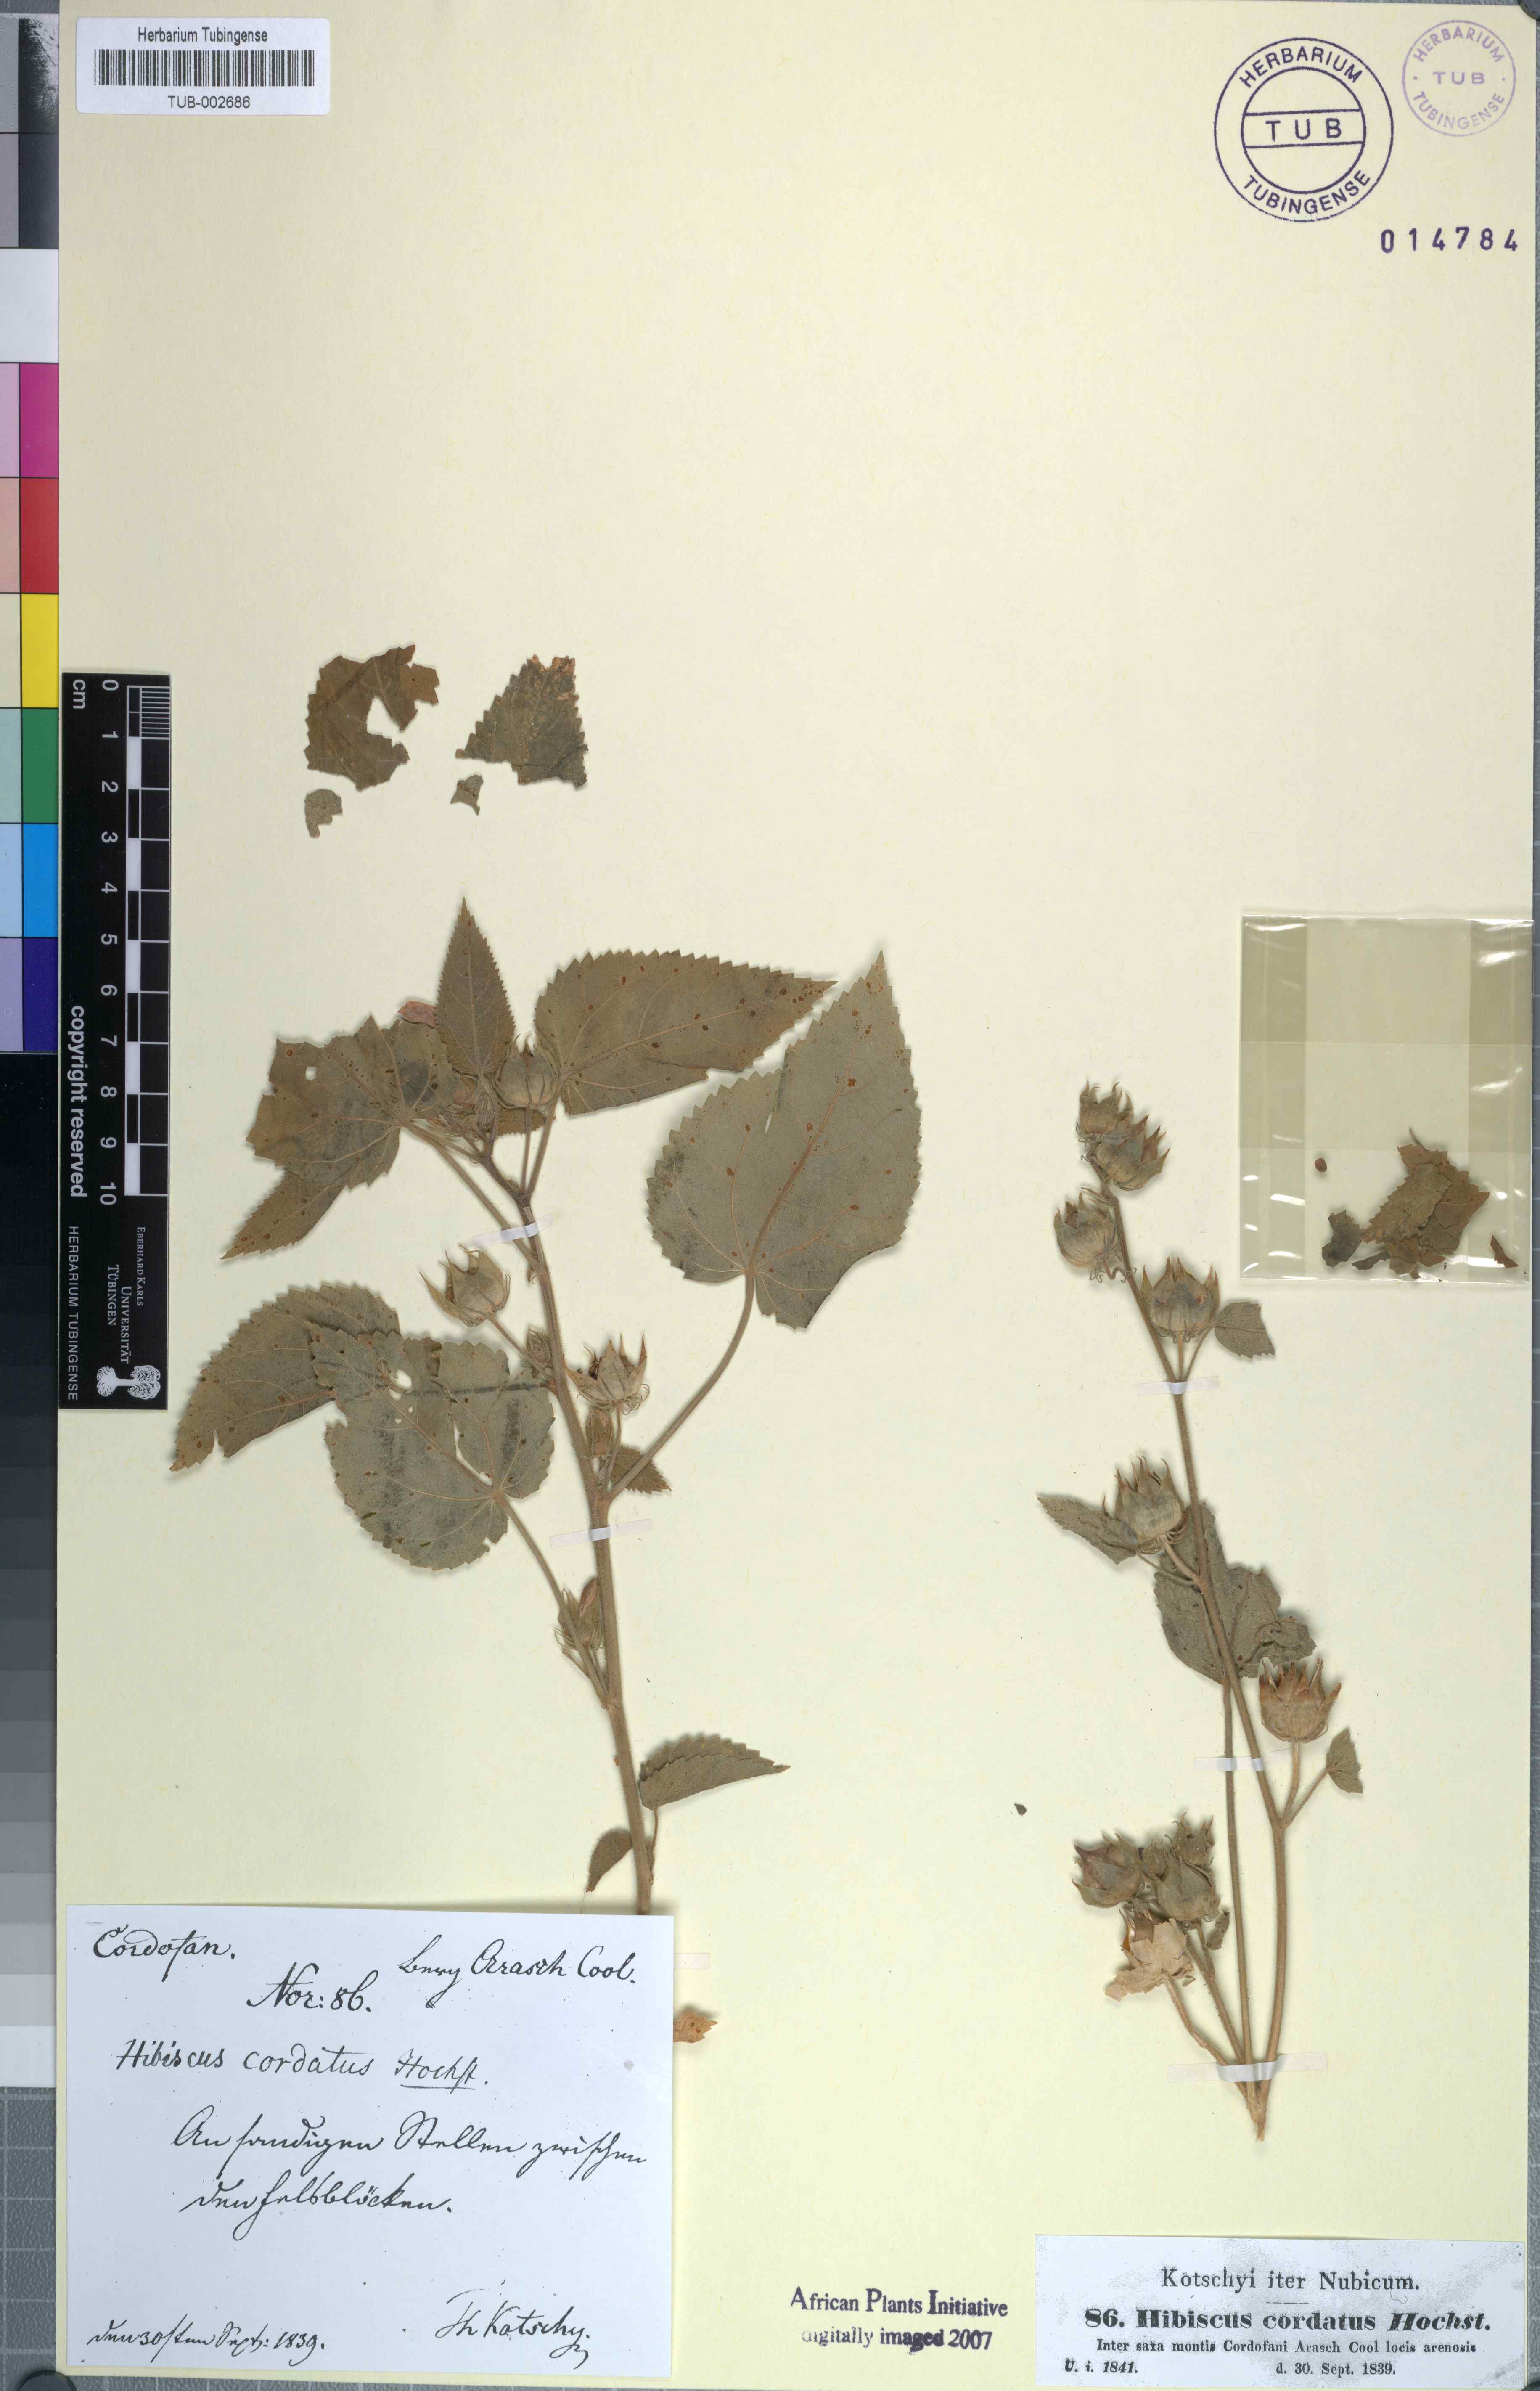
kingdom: Plantae
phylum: Tracheophyta
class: Magnoliopsida
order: Malvales
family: Malvaceae
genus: Hibiscus
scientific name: Hibiscus
